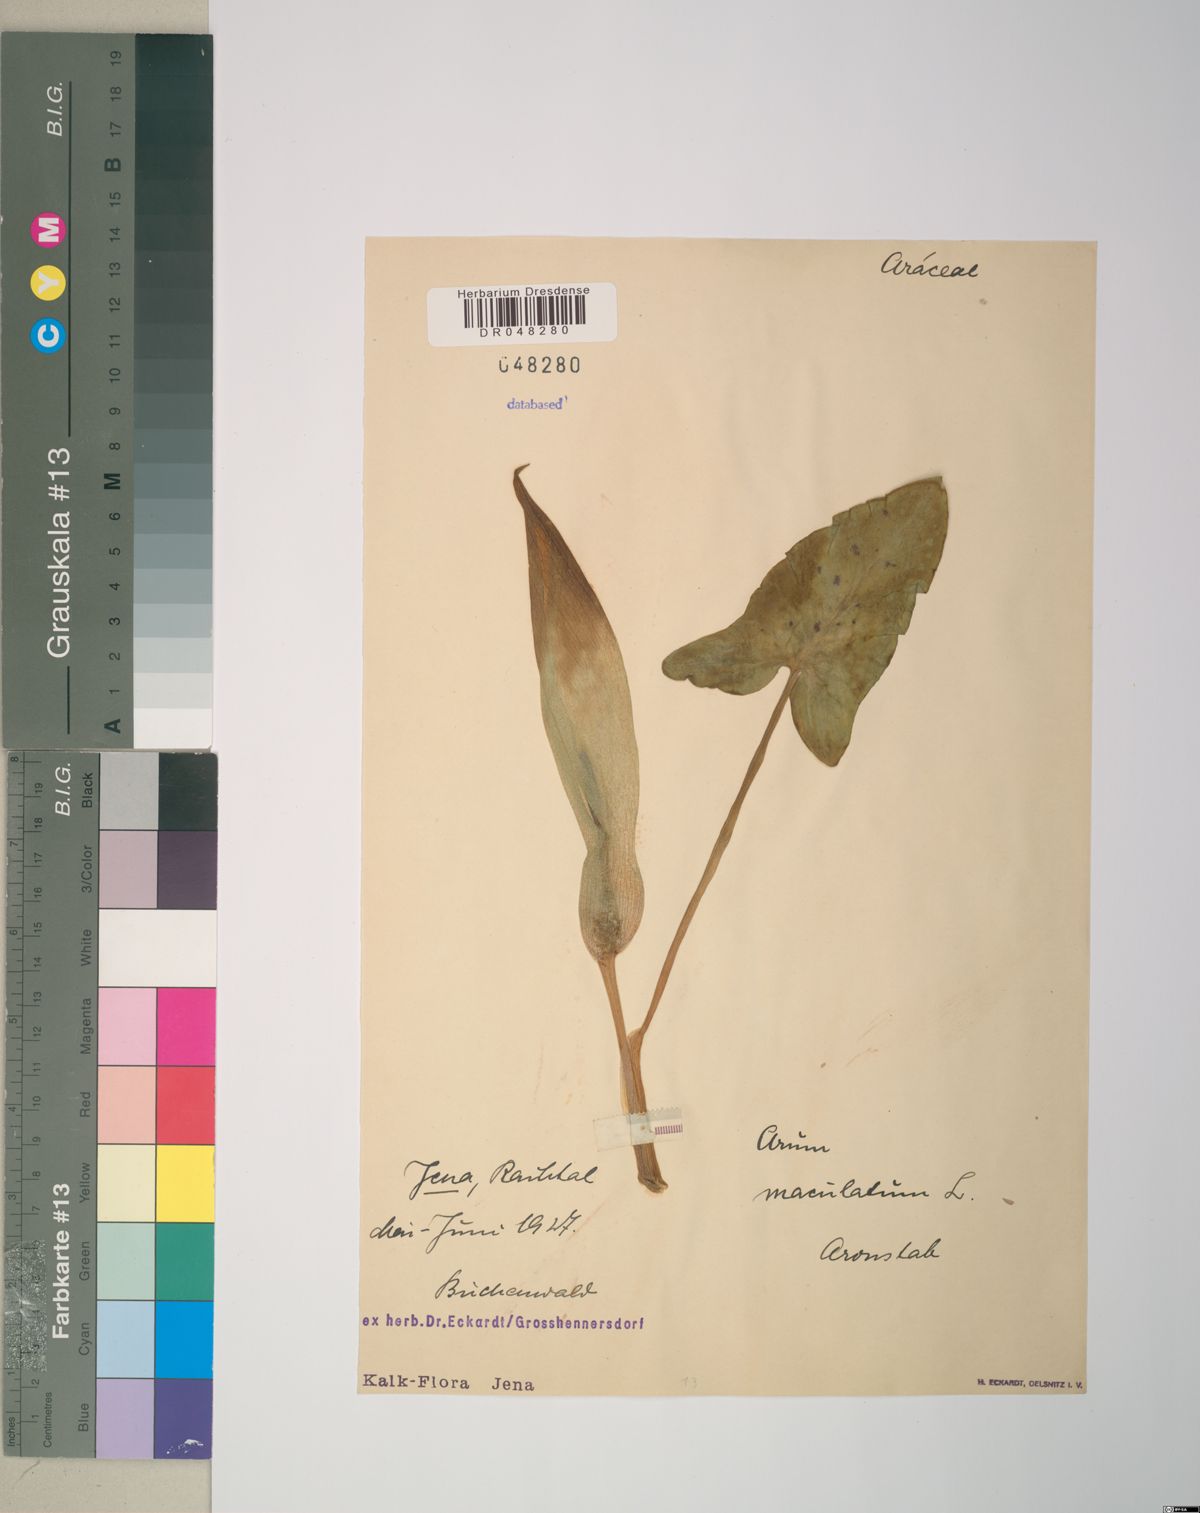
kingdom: Plantae
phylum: Tracheophyta
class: Liliopsida
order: Alismatales
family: Araceae
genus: Arum
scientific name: Arum maculatum
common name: Lords-and-ladies
